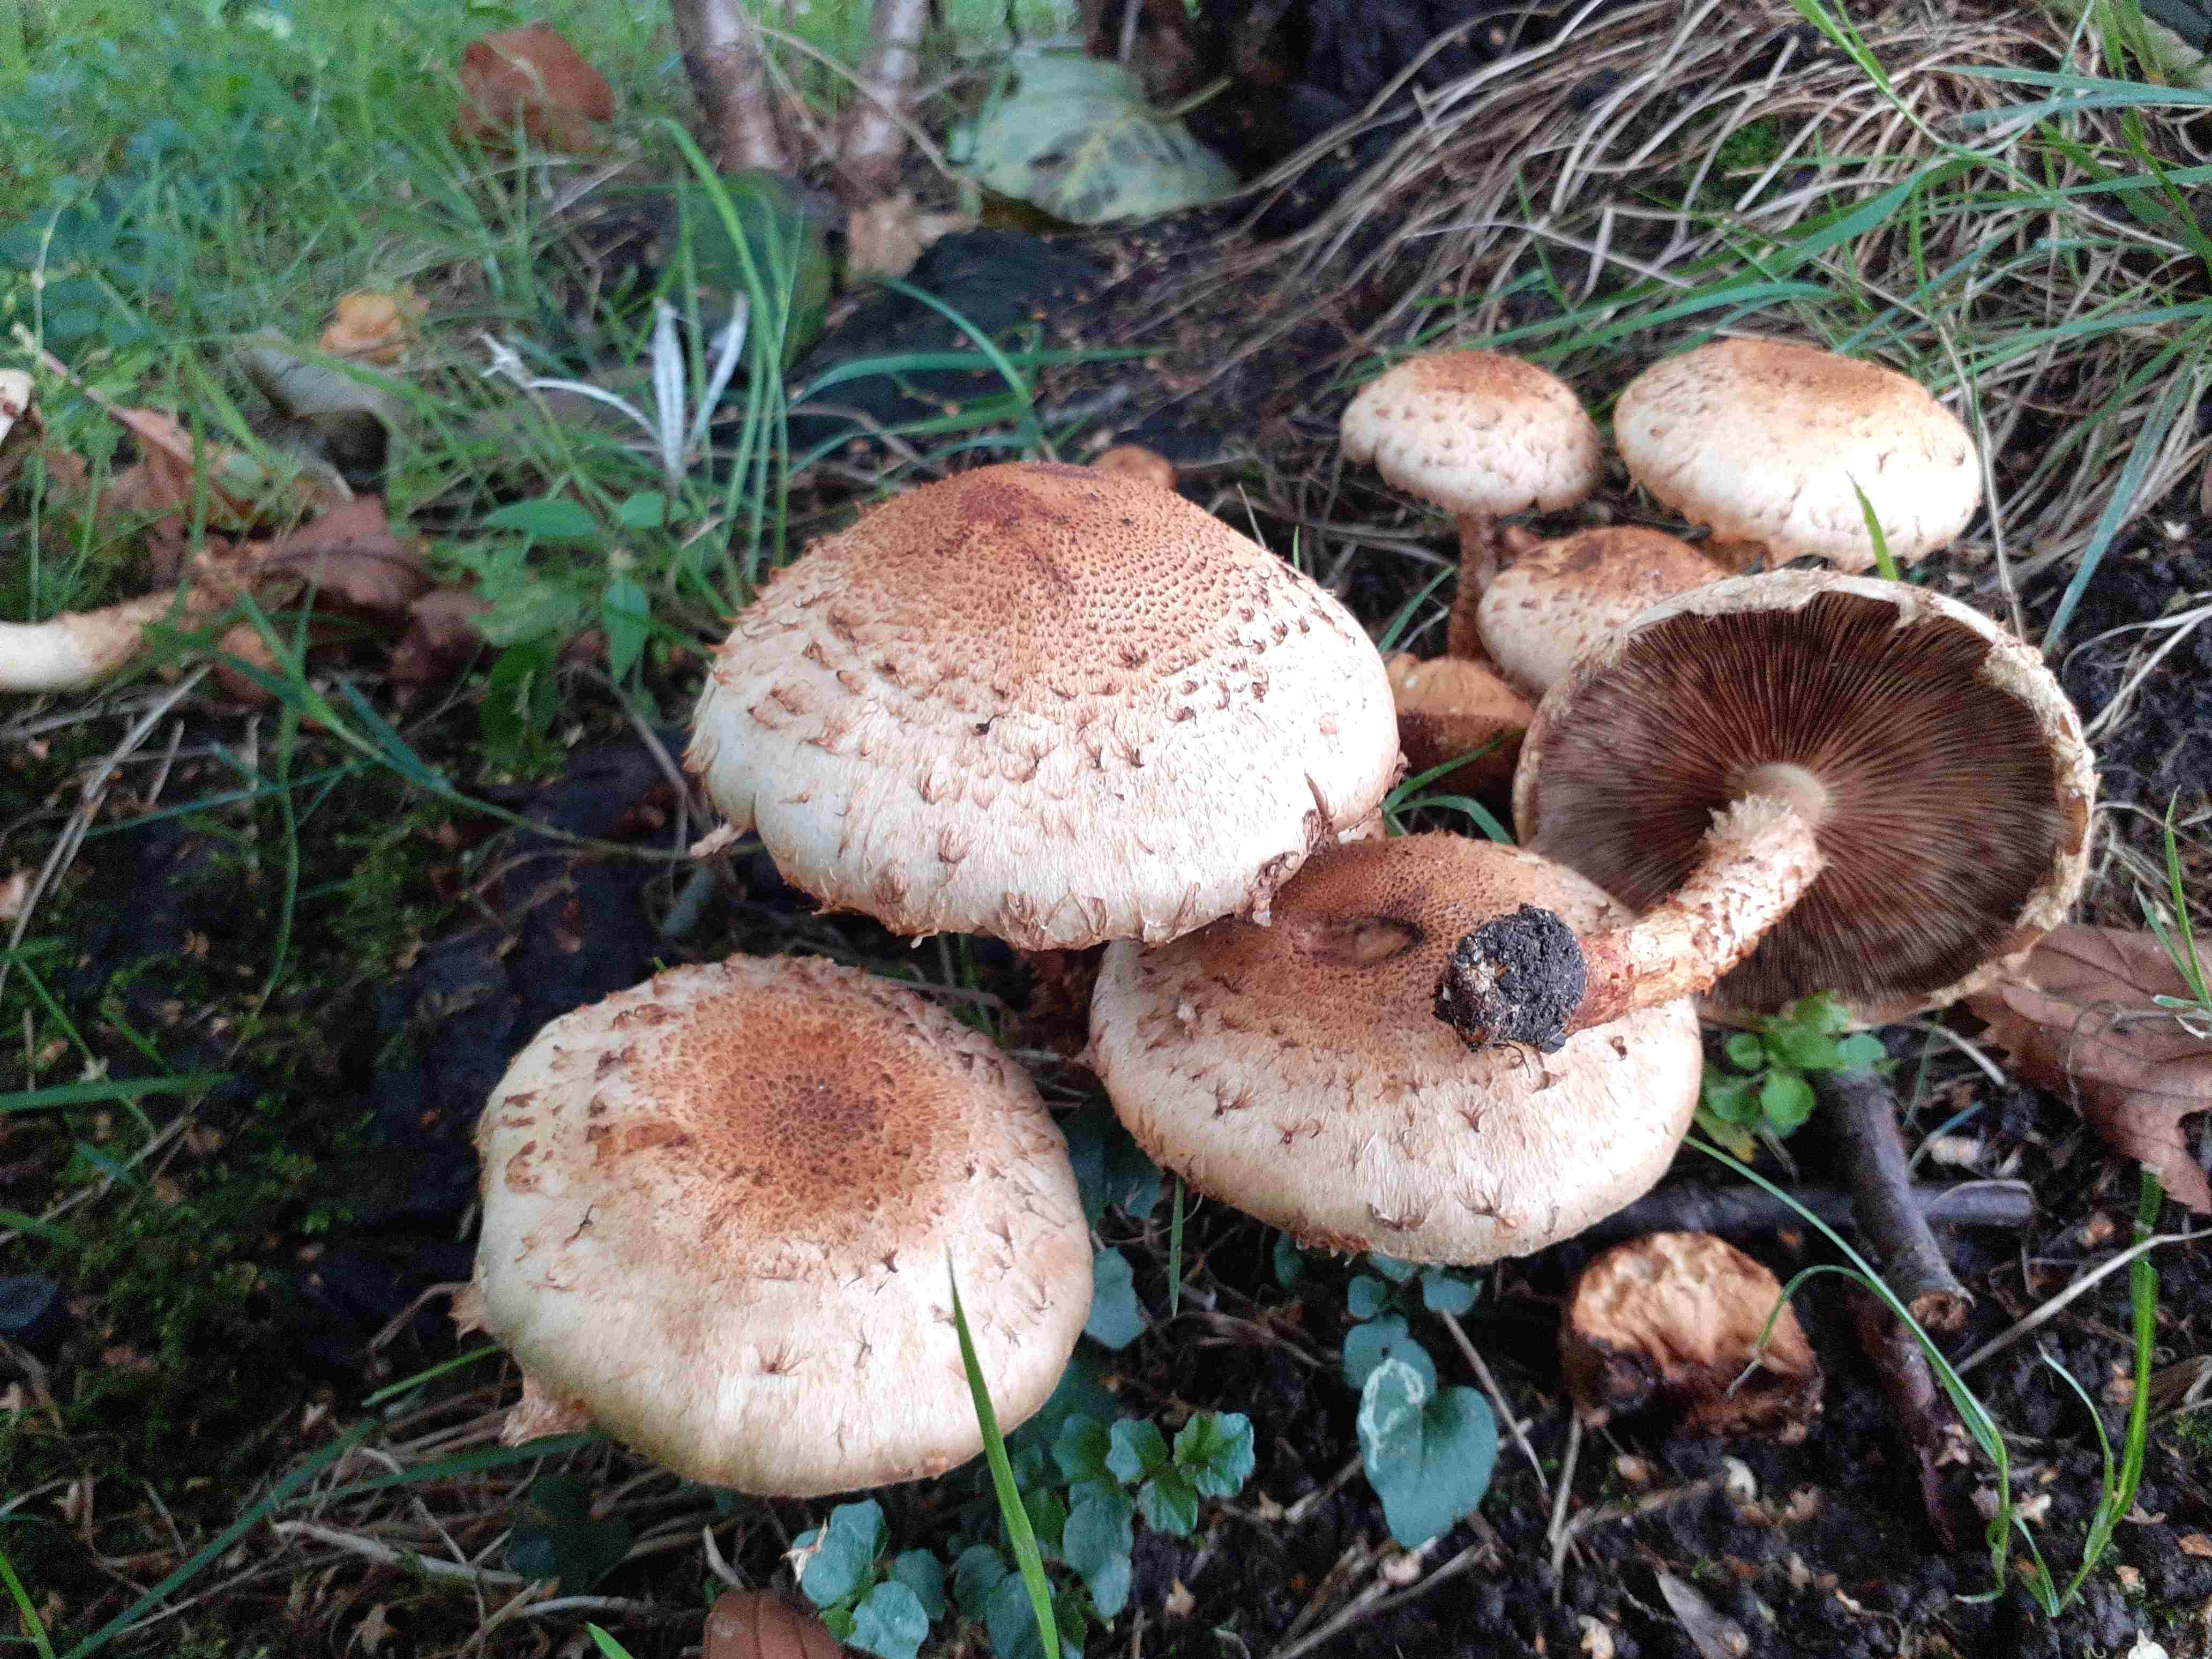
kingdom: Fungi
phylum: Basidiomycota
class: Agaricomycetes
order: Agaricales
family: Strophariaceae
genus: Pholiota
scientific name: Pholiota squarrosa
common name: krumskællet skælhat
